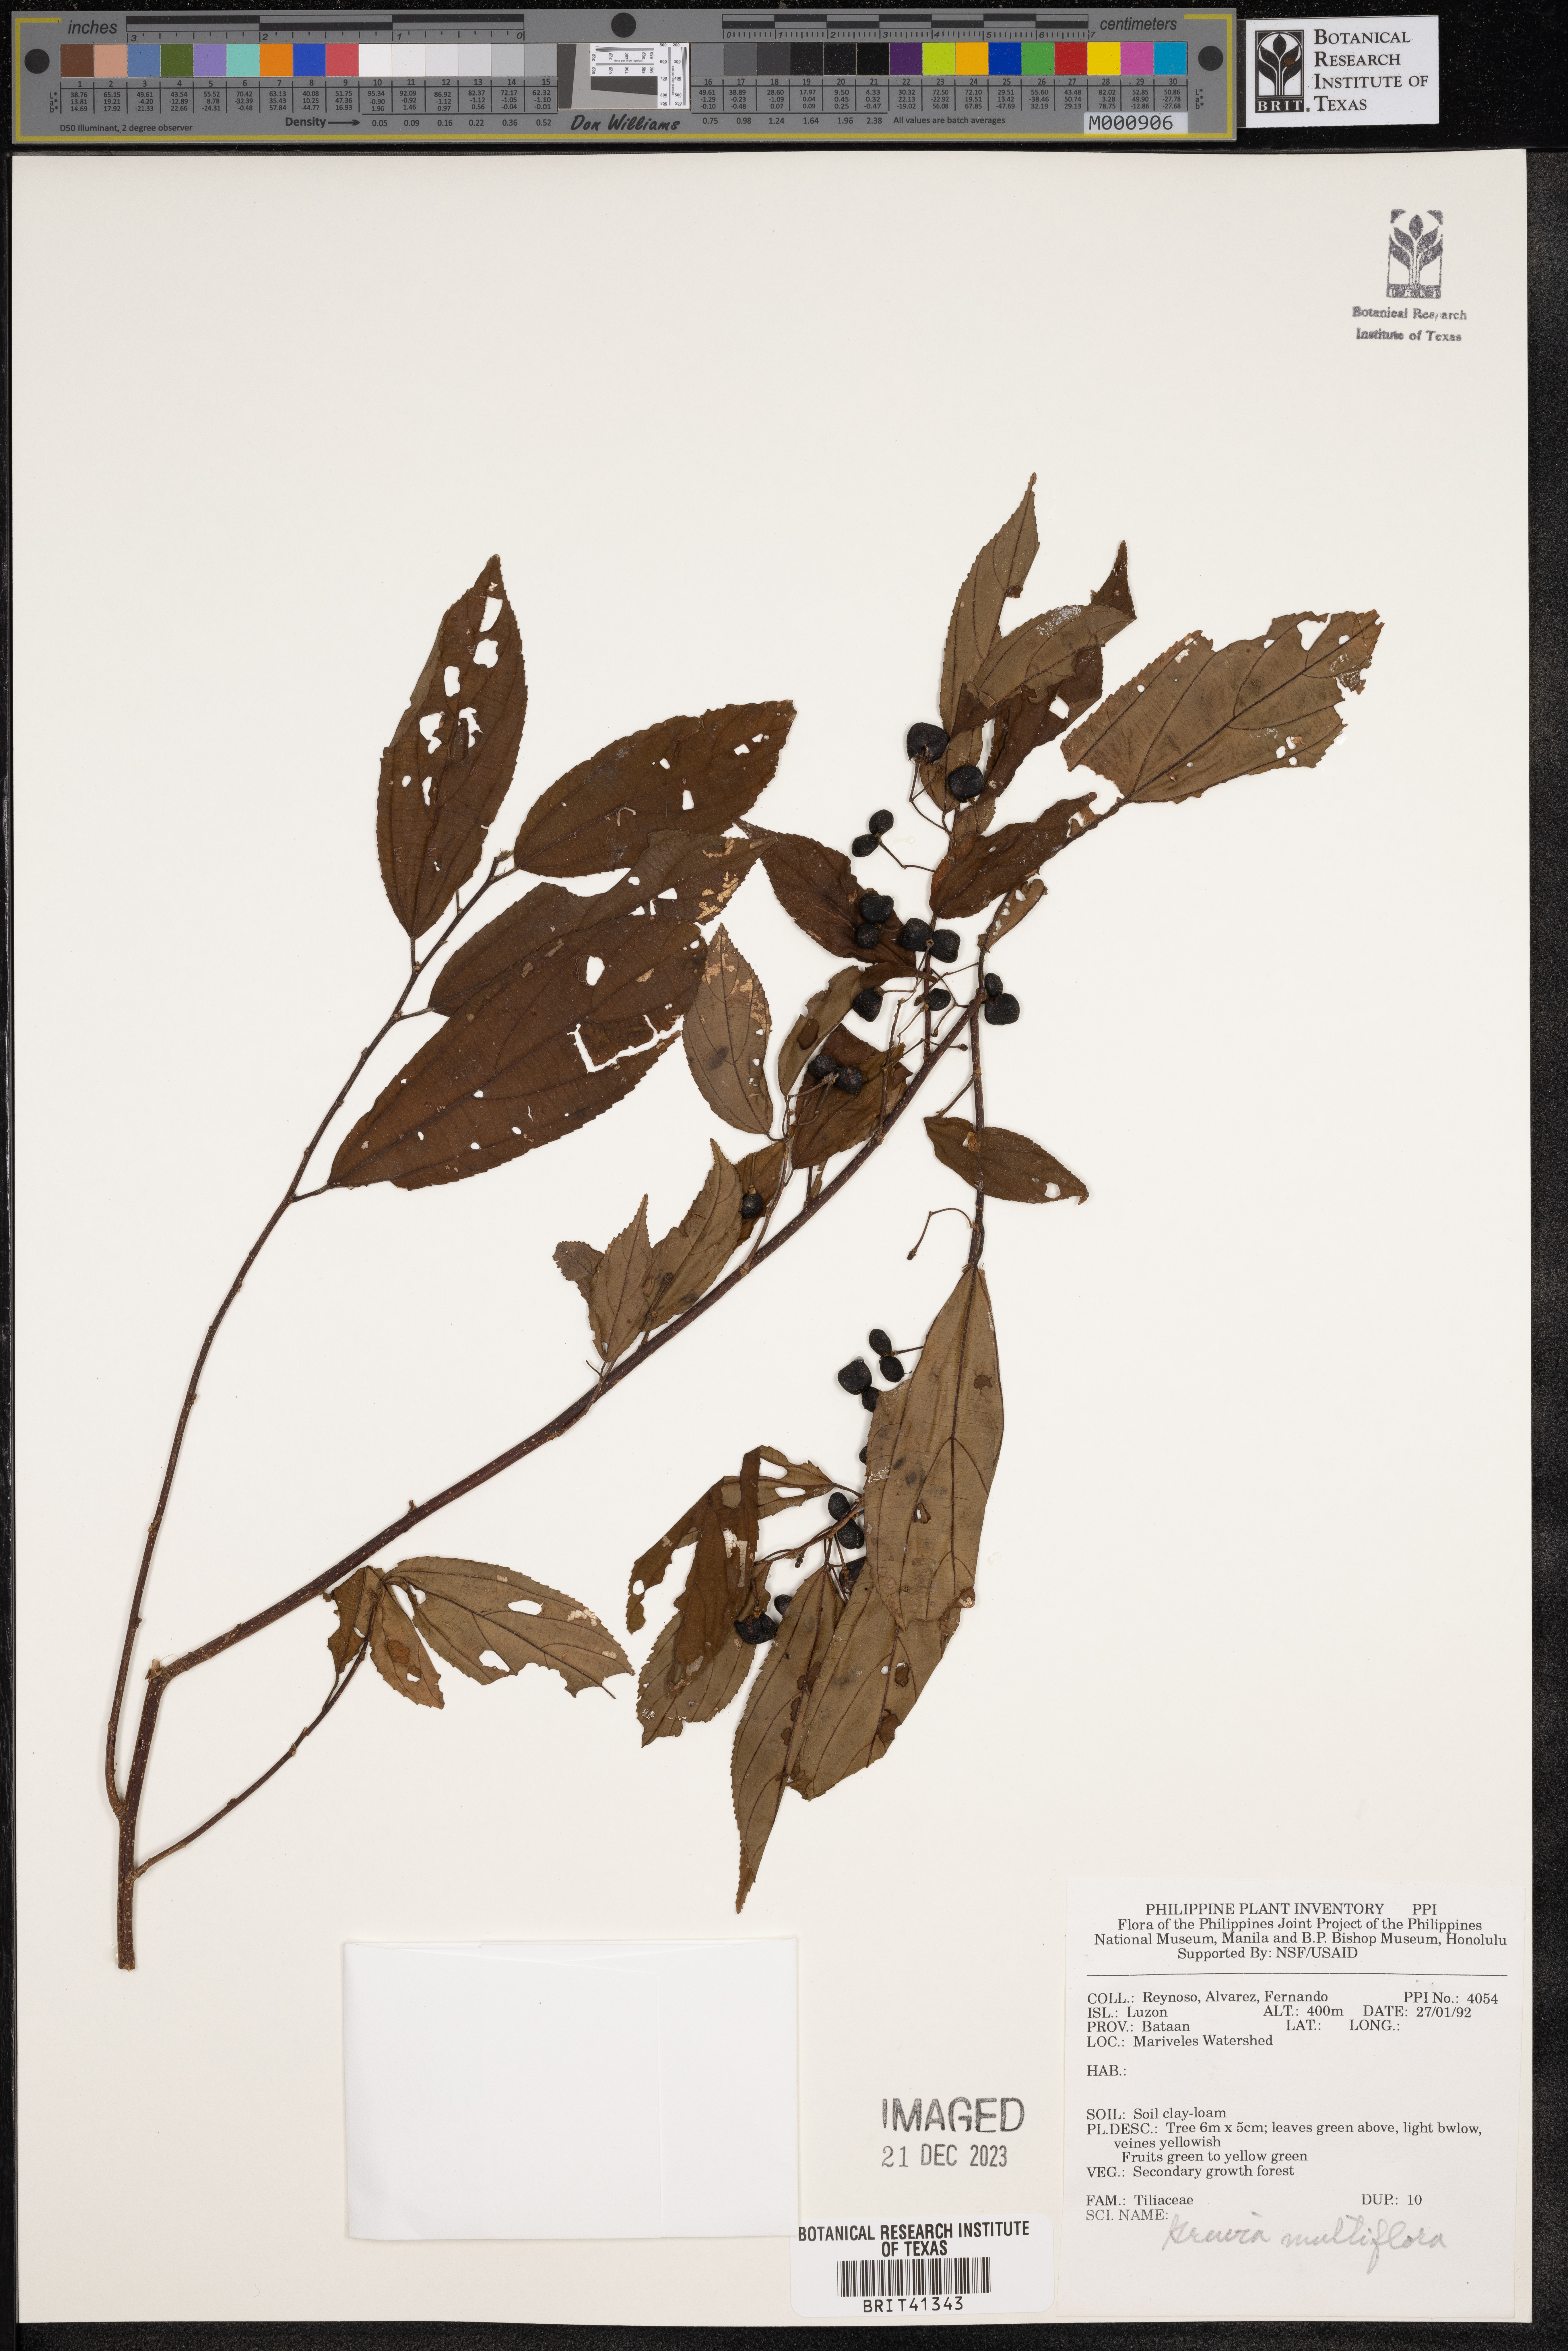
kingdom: Plantae
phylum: Tracheophyta
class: Magnoliopsida
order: Malvales
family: Malvaceae
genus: Grewia
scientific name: Grewia multiflora
